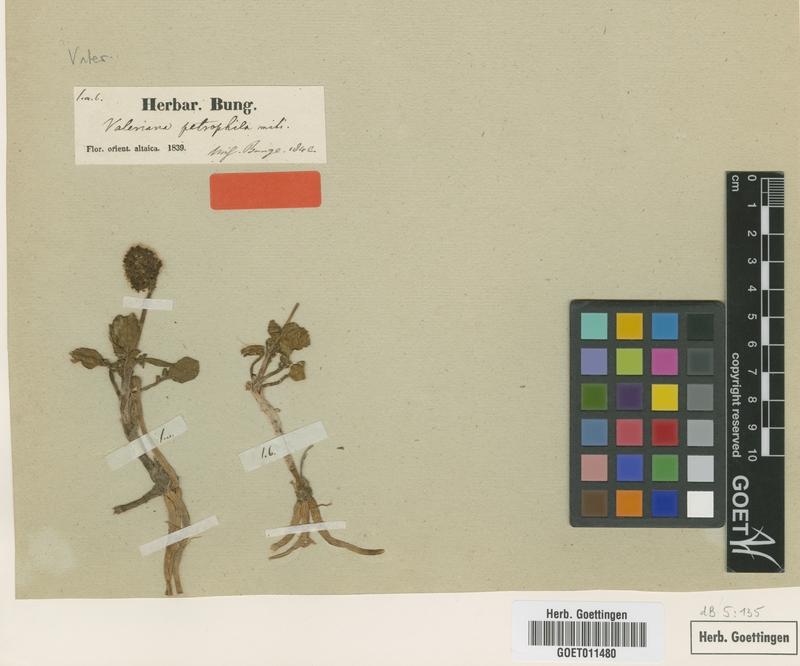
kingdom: Plantae
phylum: Tracheophyta
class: Magnoliopsida
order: Dipsacales
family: Caprifoliaceae
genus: Valeriana
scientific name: Valeriana petrophila
